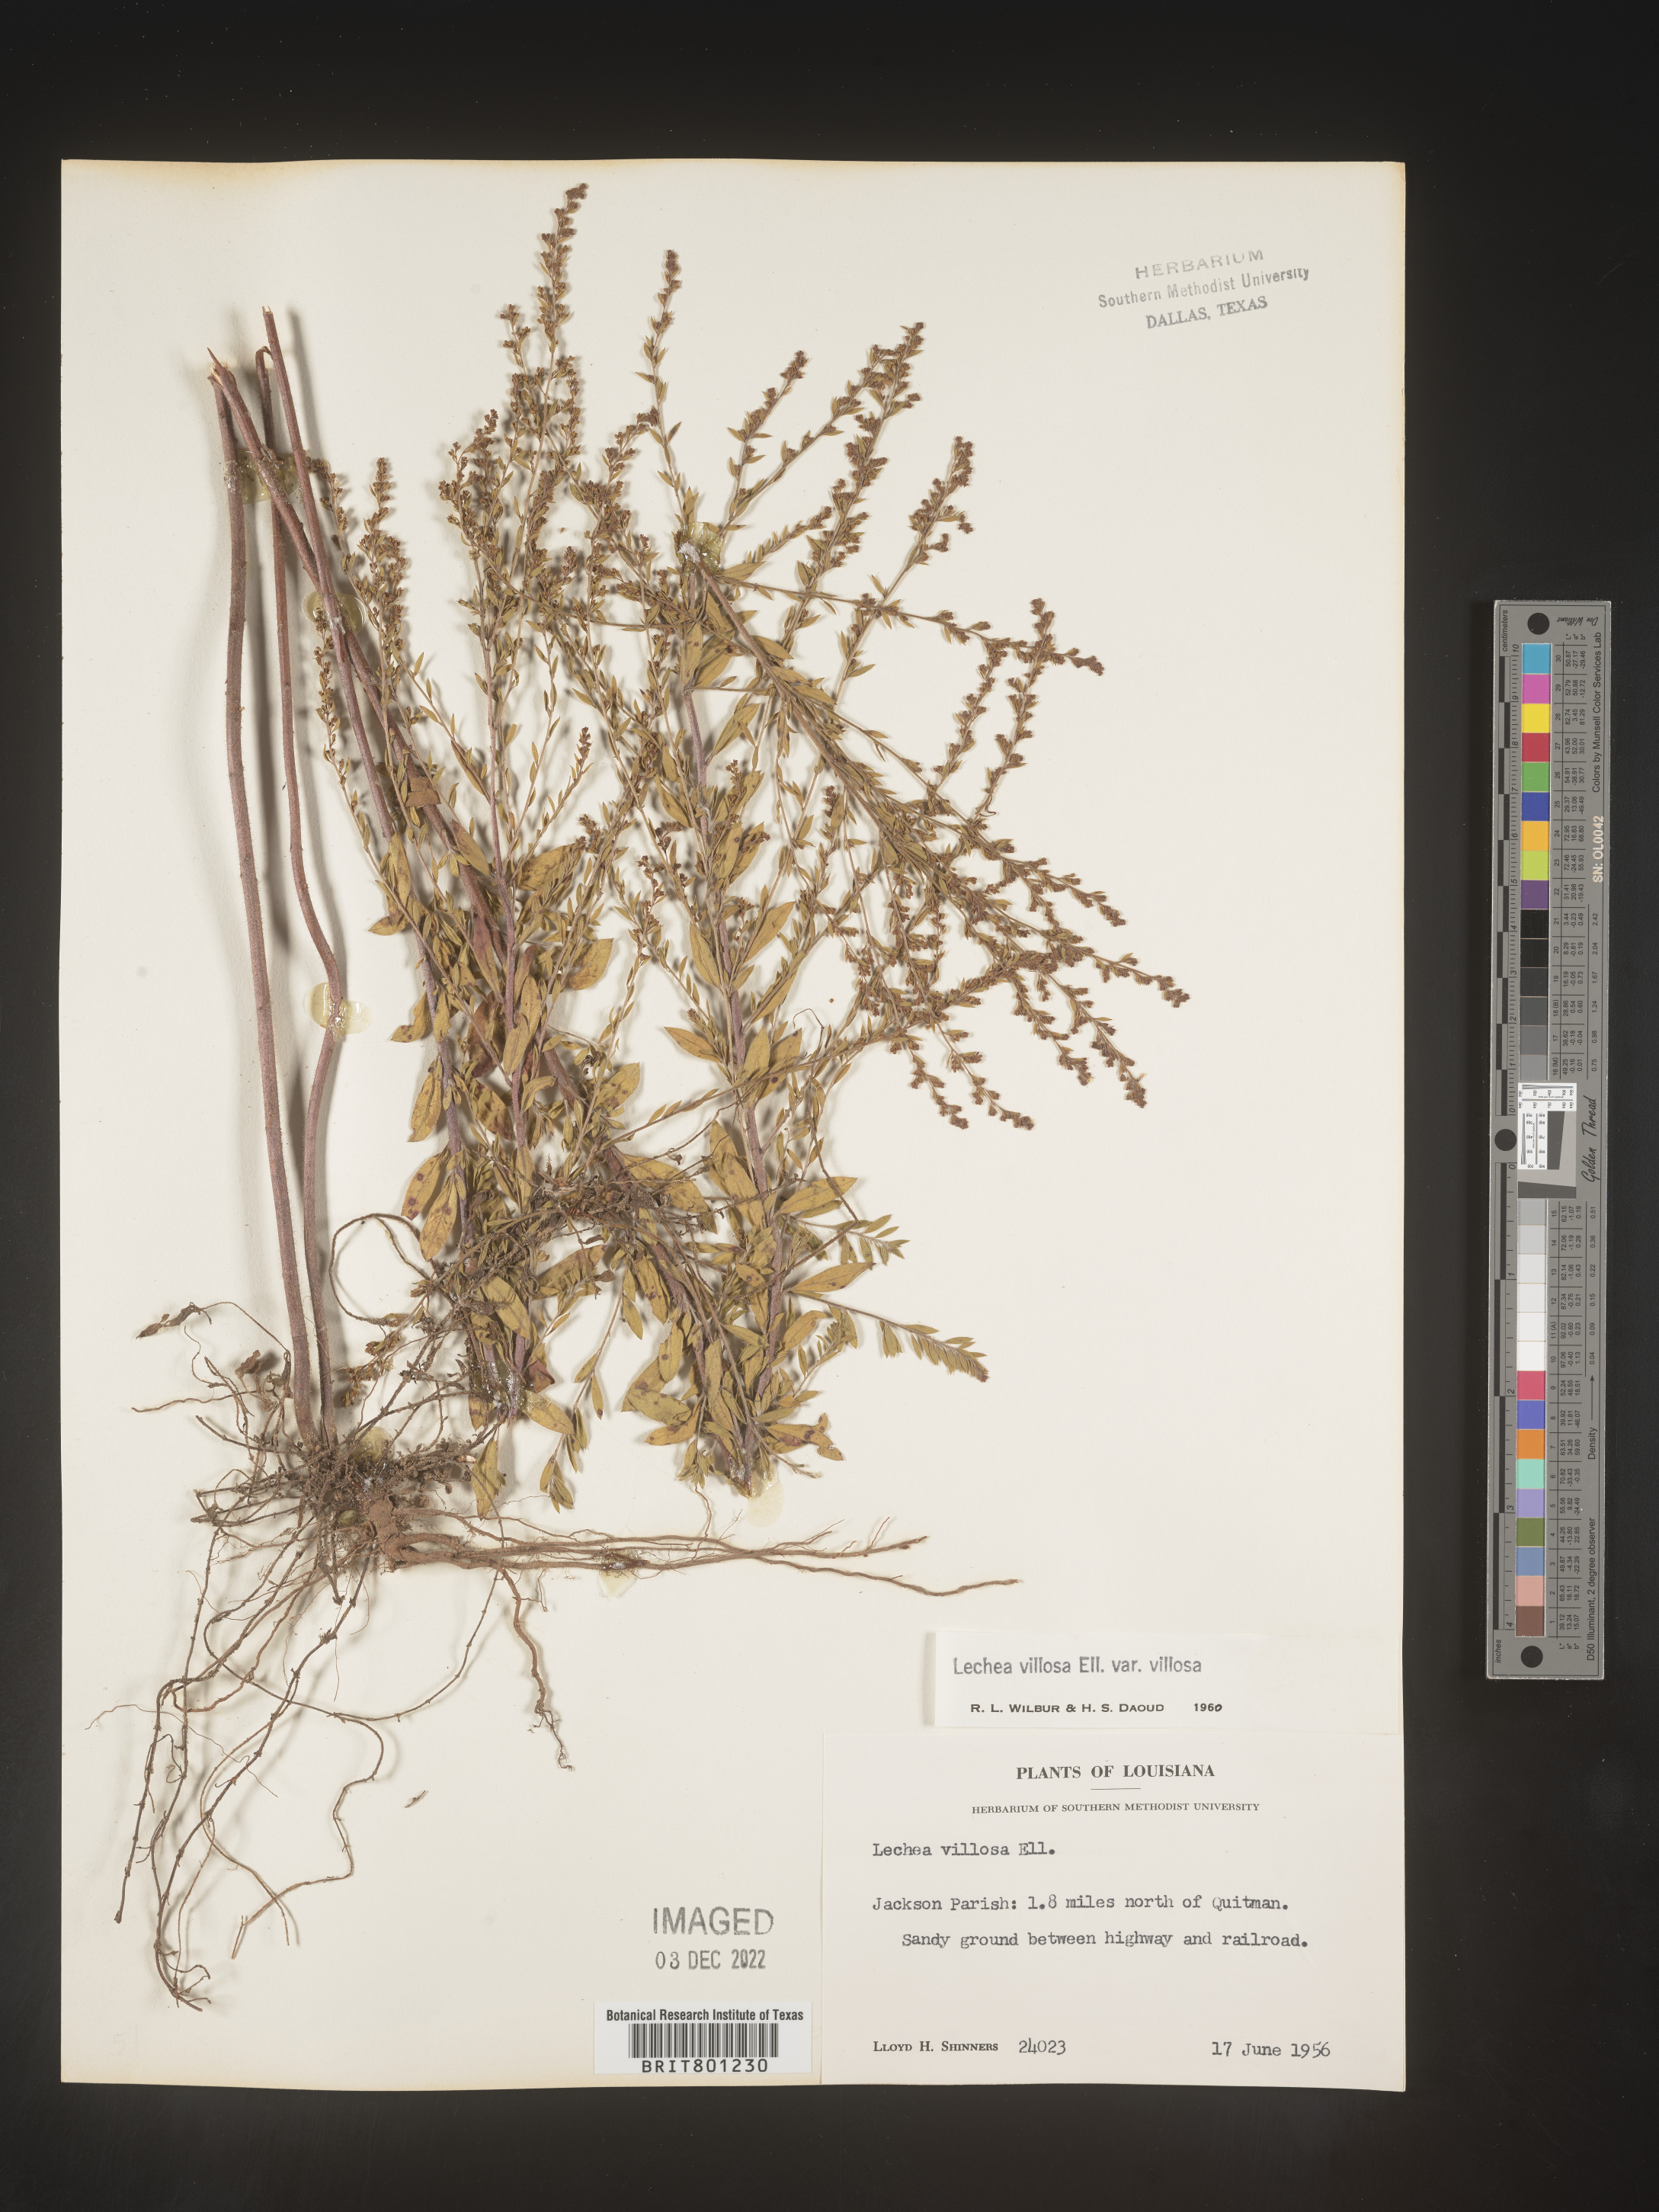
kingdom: Plantae
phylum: Tracheophyta
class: Magnoliopsida
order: Malvales
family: Cistaceae
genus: Lechea
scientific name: Lechea mucronata
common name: Hairy pinweed
